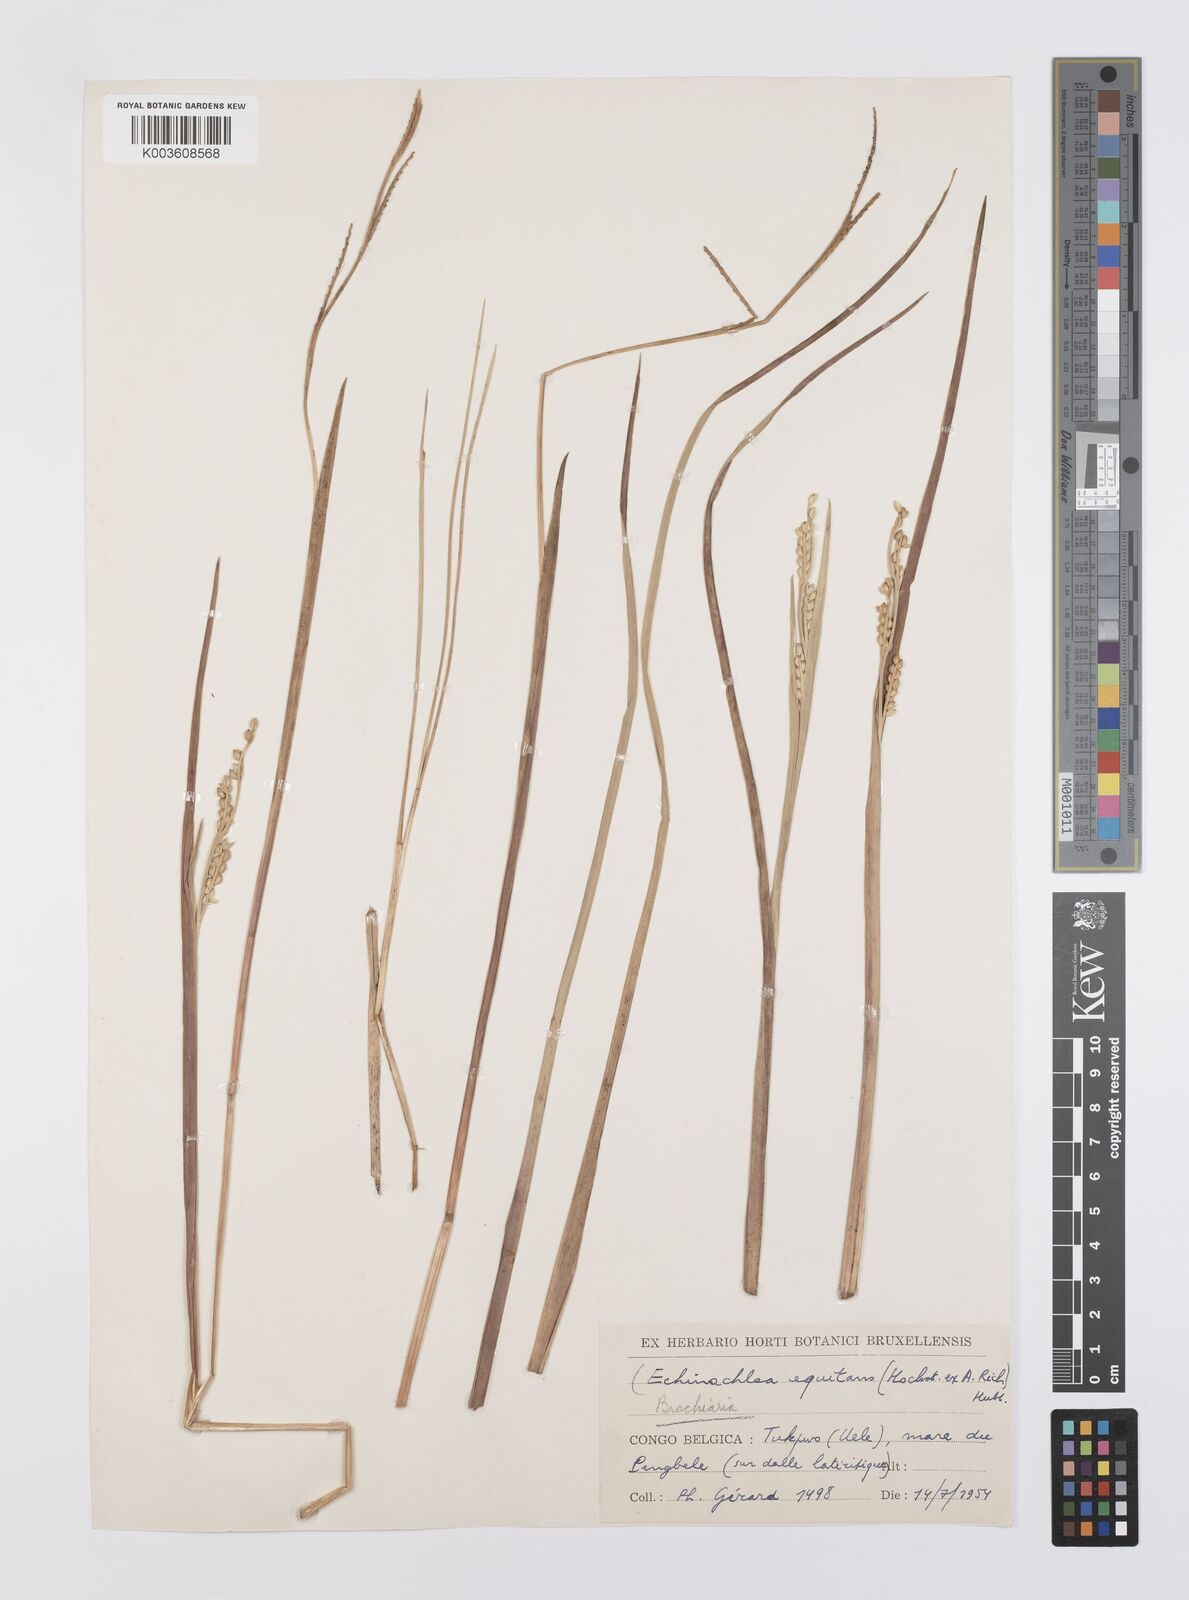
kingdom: Plantae
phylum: Tracheophyta
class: Liliopsida
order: Poales
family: Poaceae
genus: Echinochloa
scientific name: Echinochloa callopus
